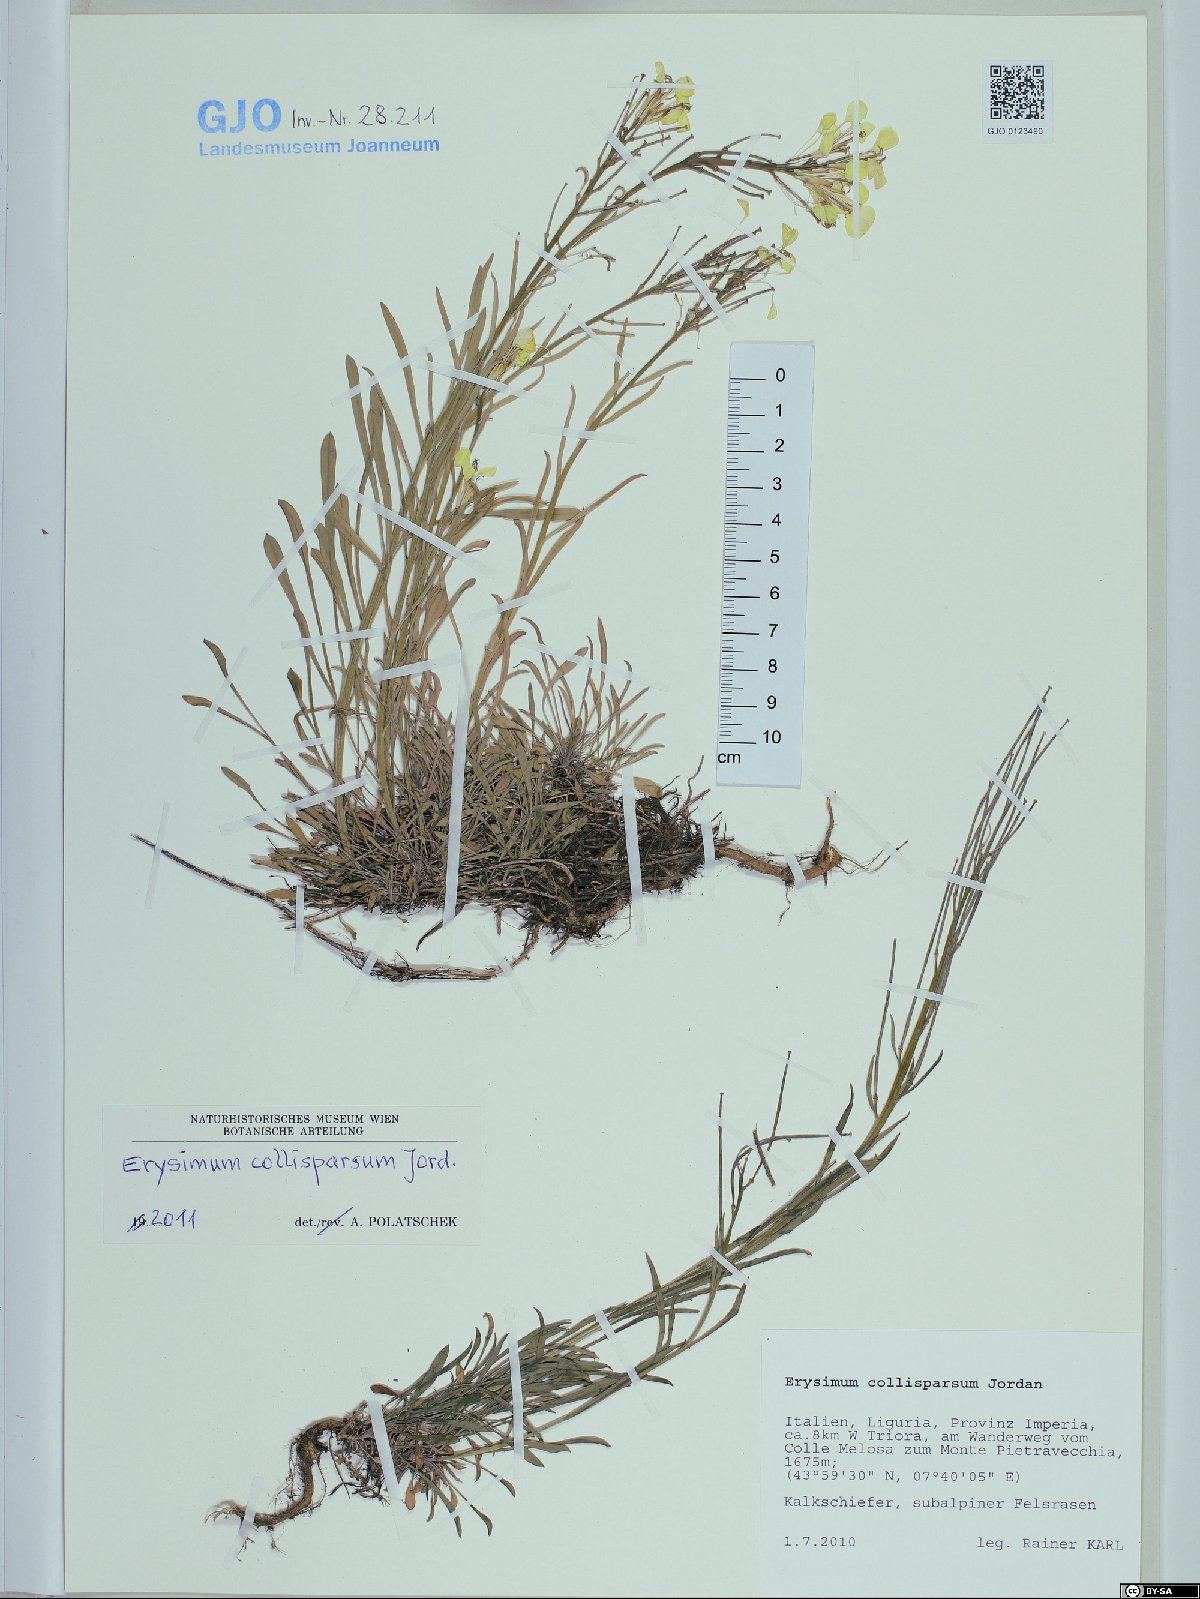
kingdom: Plantae
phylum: Tracheophyta
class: Magnoliopsida
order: Brassicales
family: Brassicaceae
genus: Erysimum
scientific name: Erysimum collisparsum
